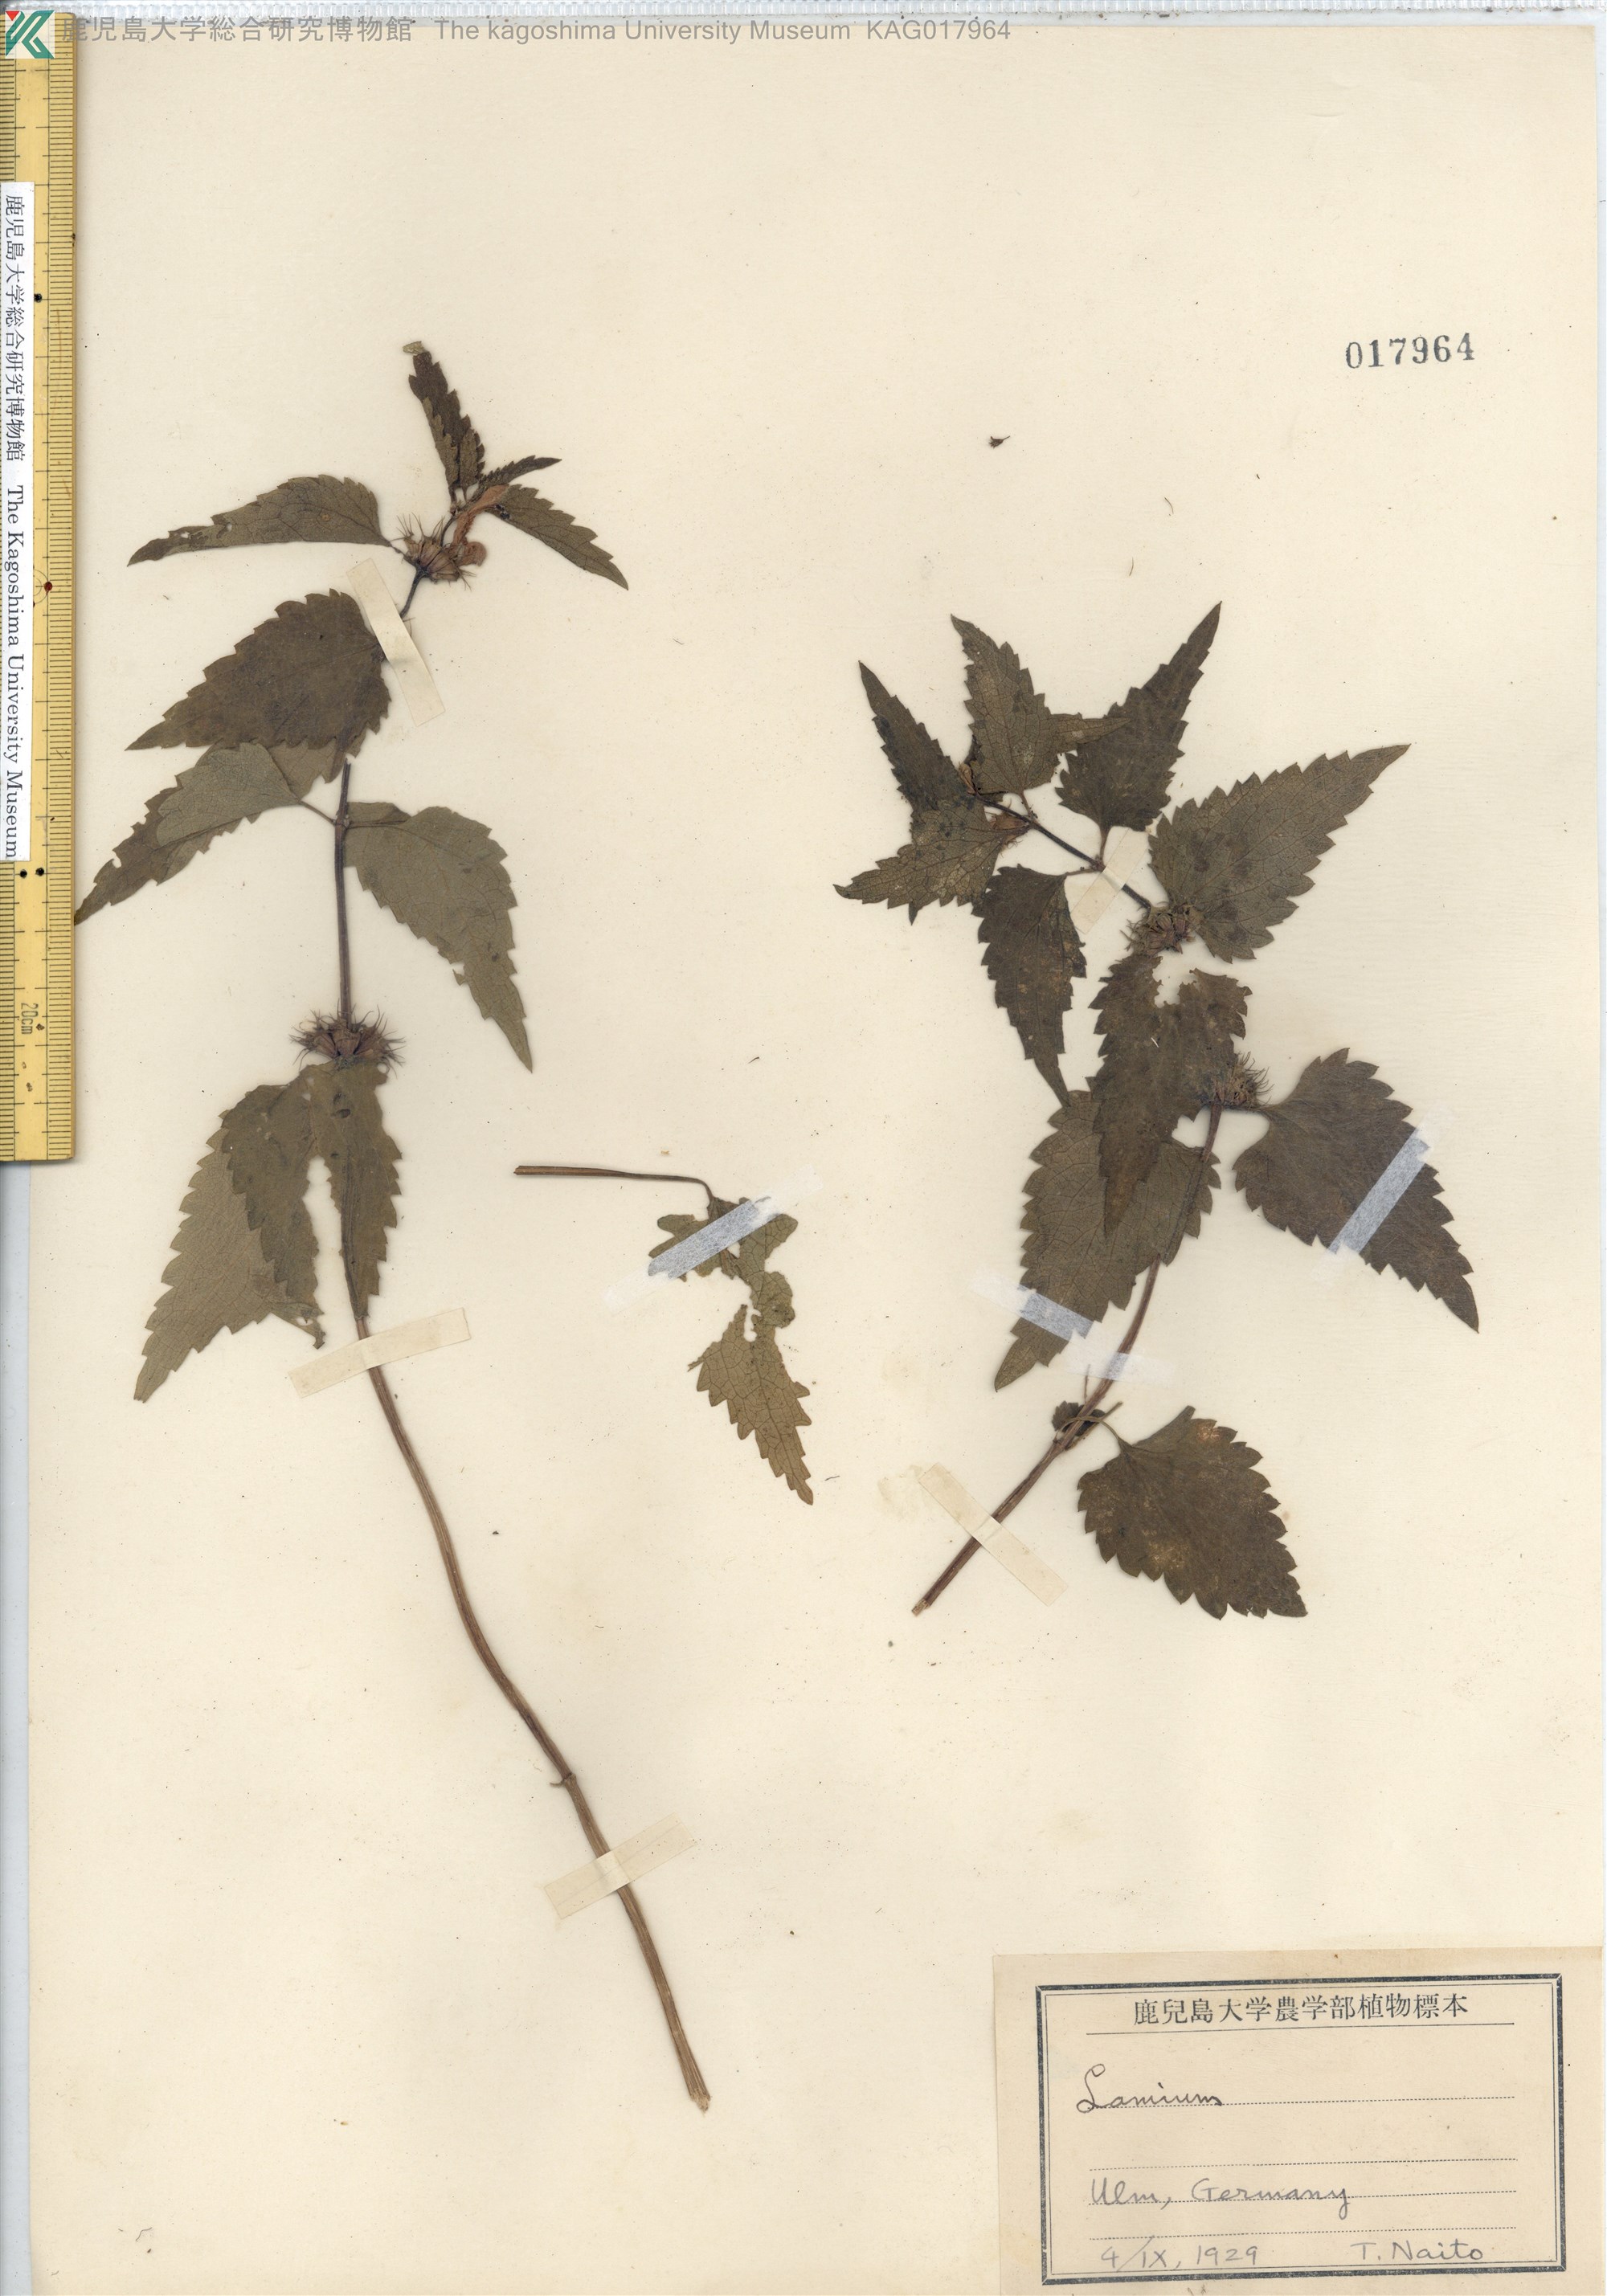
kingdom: Plantae
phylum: Tracheophyta
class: Magnoliopsida
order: Lamiales
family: Lamiaceae
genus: Lamium
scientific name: Lamium album
